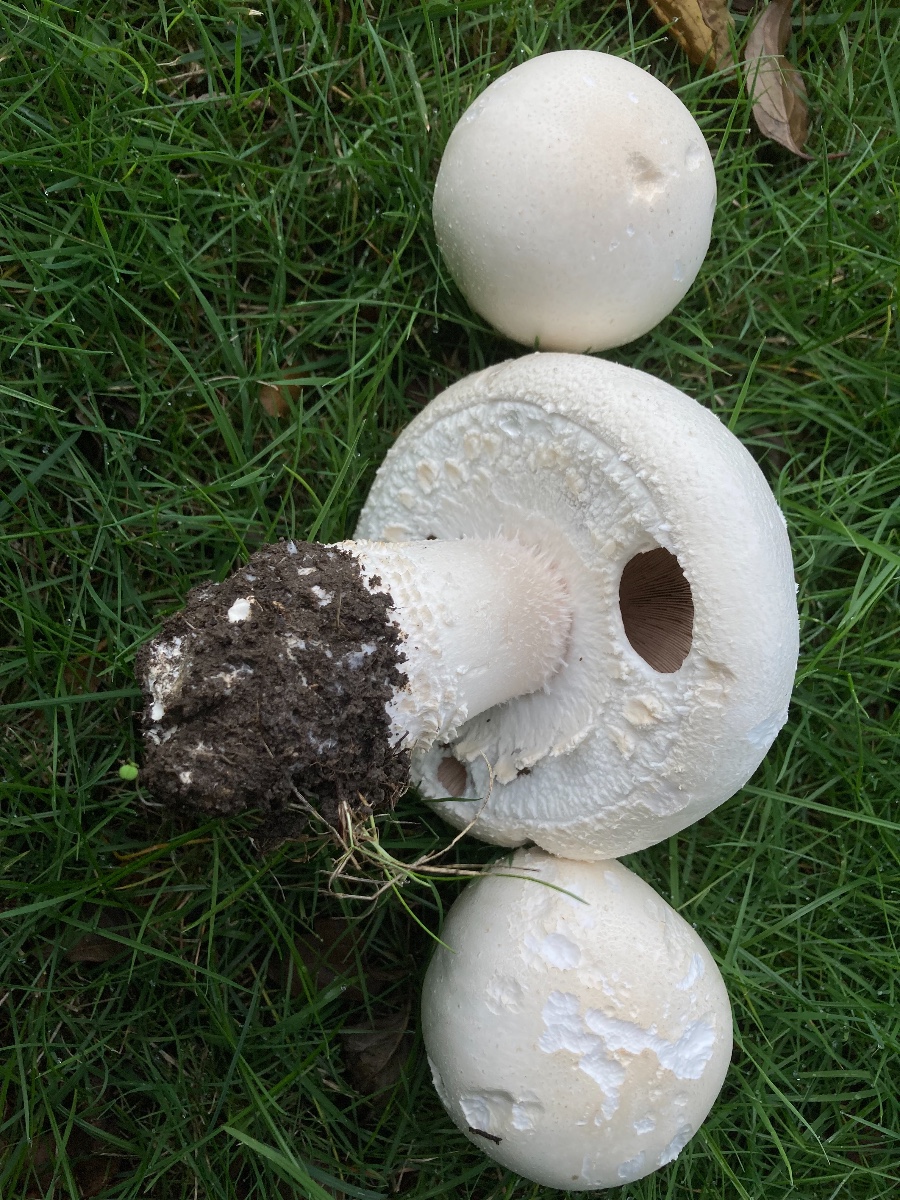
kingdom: Fungi
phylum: Basidiomycota
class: Agaricomycetes
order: Agaricales
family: Agaricaceae
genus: Agaricus
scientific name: Agaricus crocodilinus
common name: landsby-champignon
